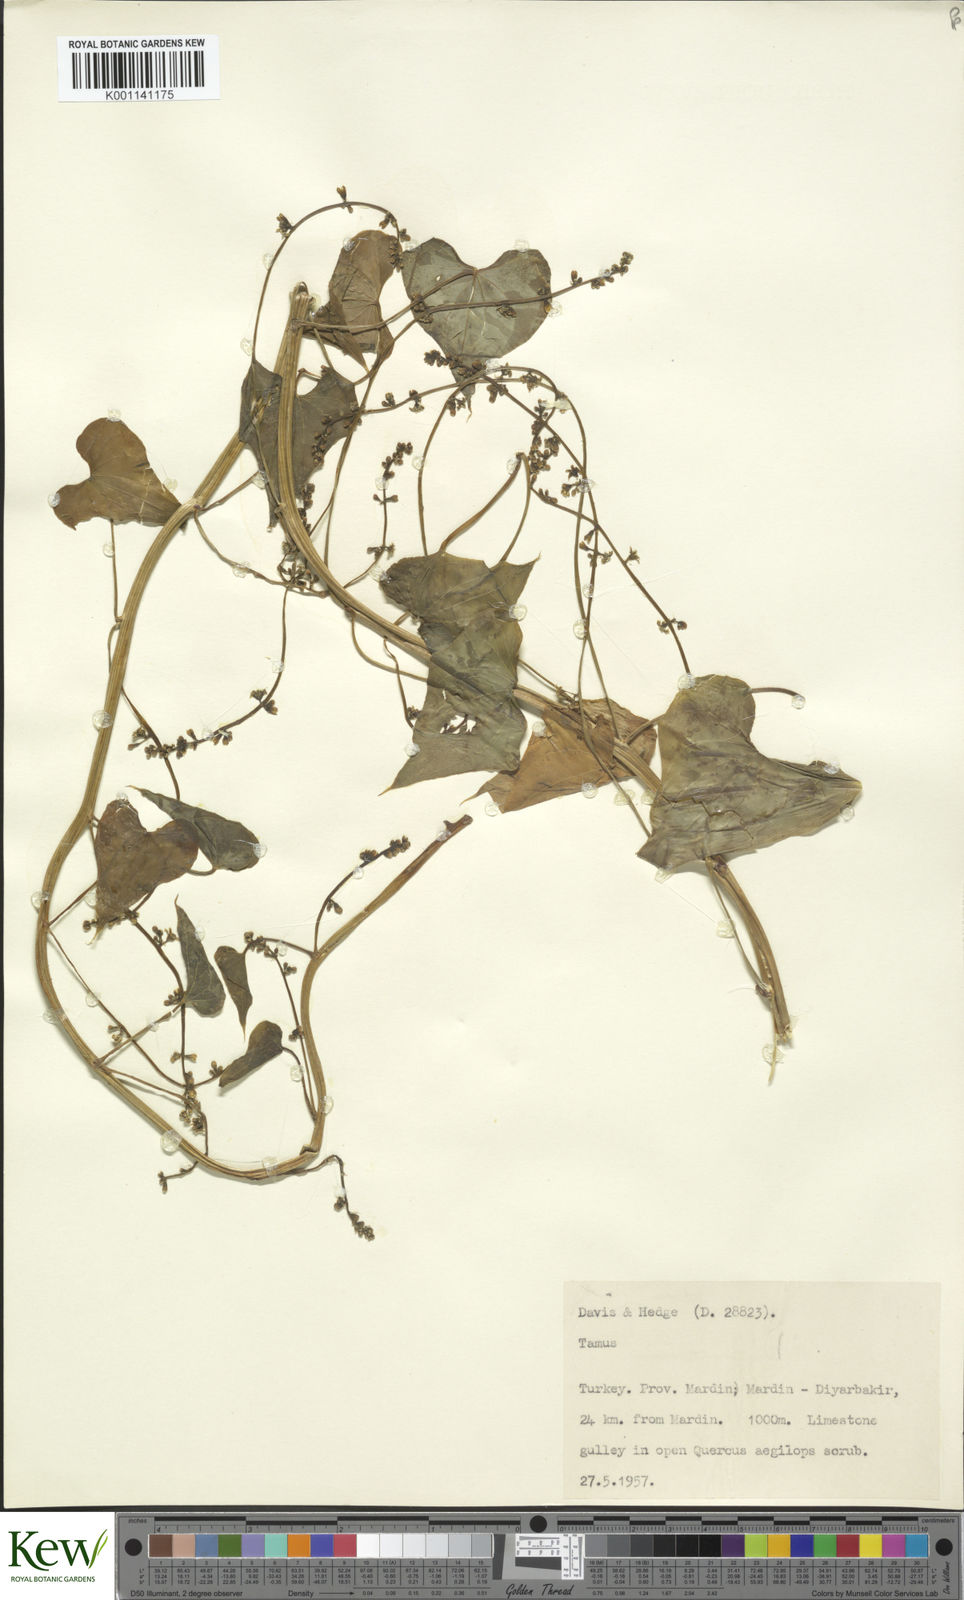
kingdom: Plantae
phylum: Tracheophyta
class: Liliopsida
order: Dioscoreales
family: Dioscoreaceae
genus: Dioscorea
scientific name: Dioscorea communis
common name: Black-bindweed
